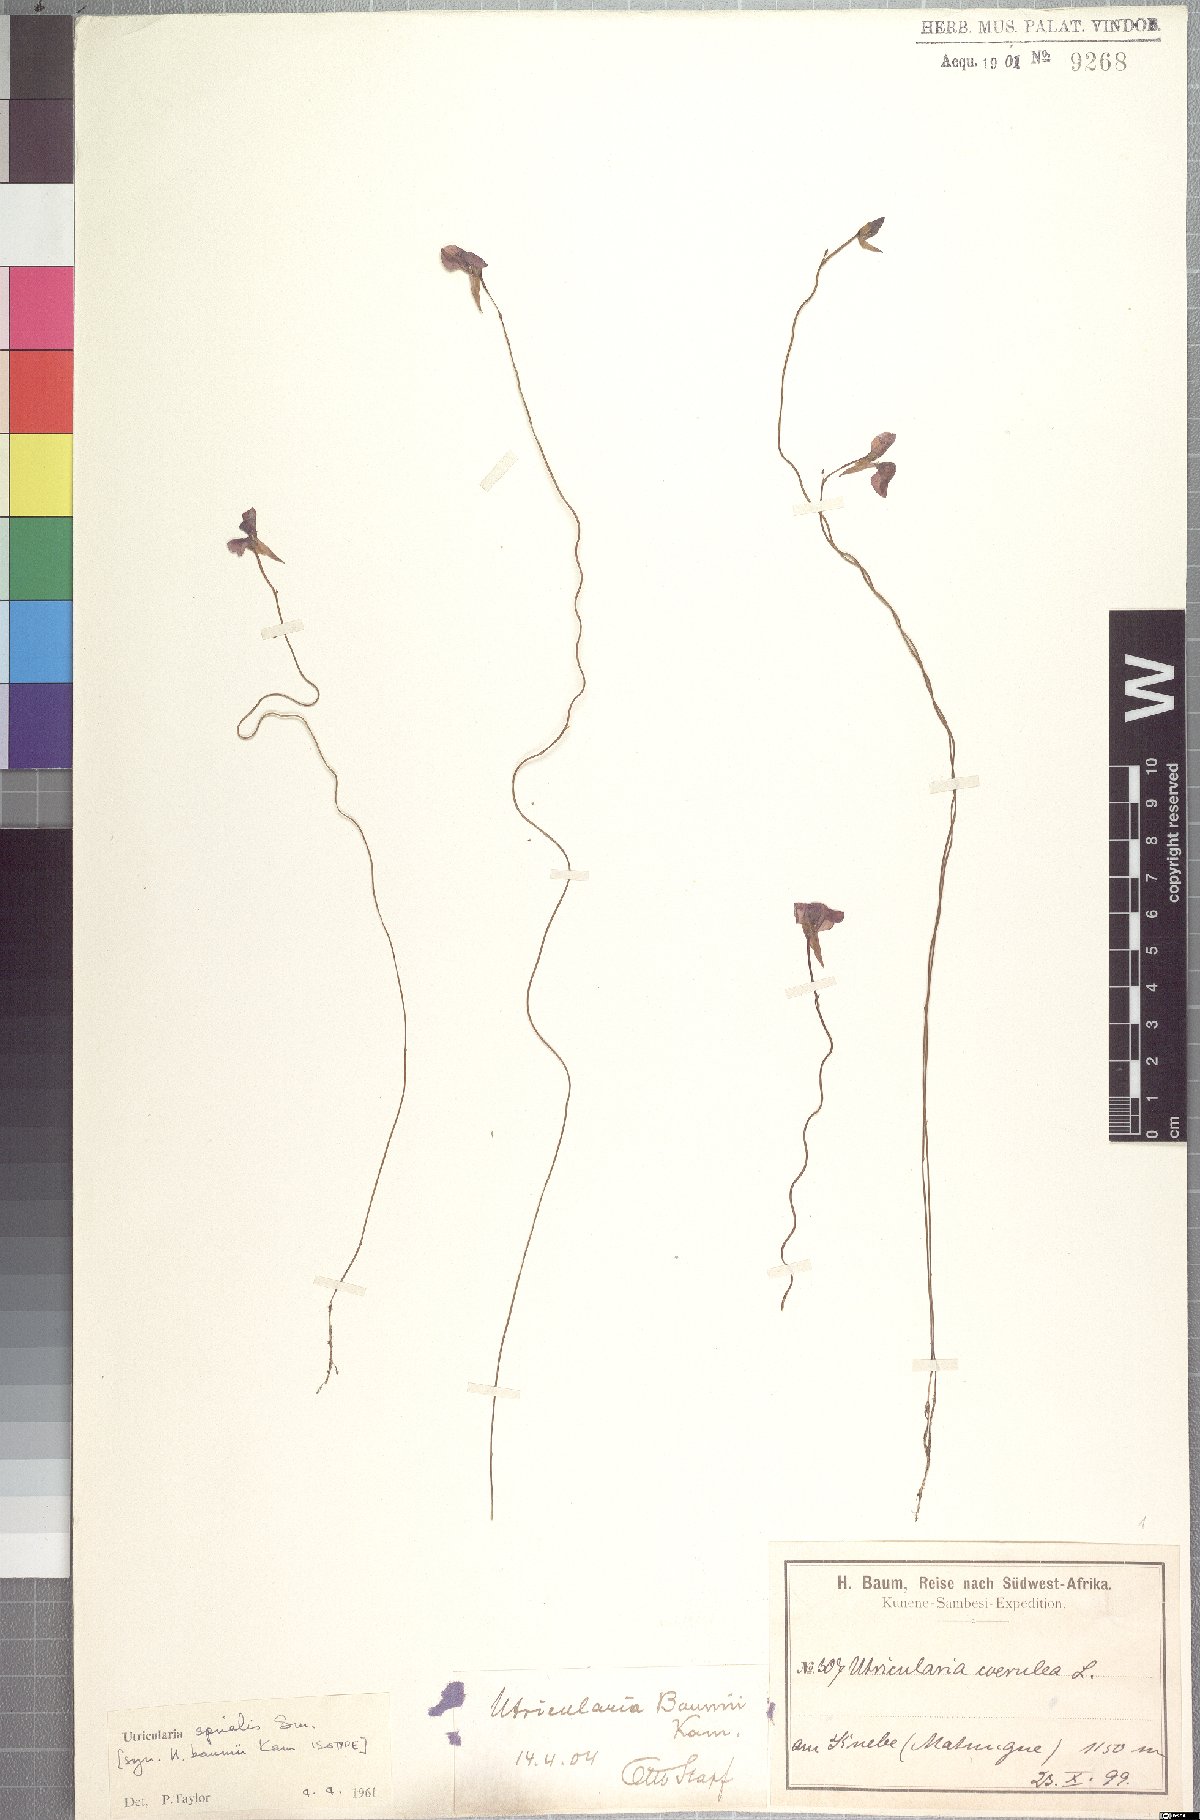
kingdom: Plantae
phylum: Tracheophyta
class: Magnoliopsida
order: Lamiales
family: Lentibulariaceae
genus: Utricularia
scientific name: Utricularia spiralis
